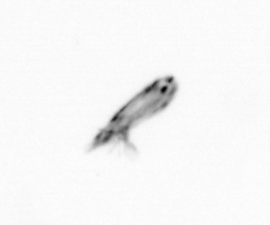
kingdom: Animalia
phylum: Arthropoda
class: Copepoda
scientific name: Copepoda
